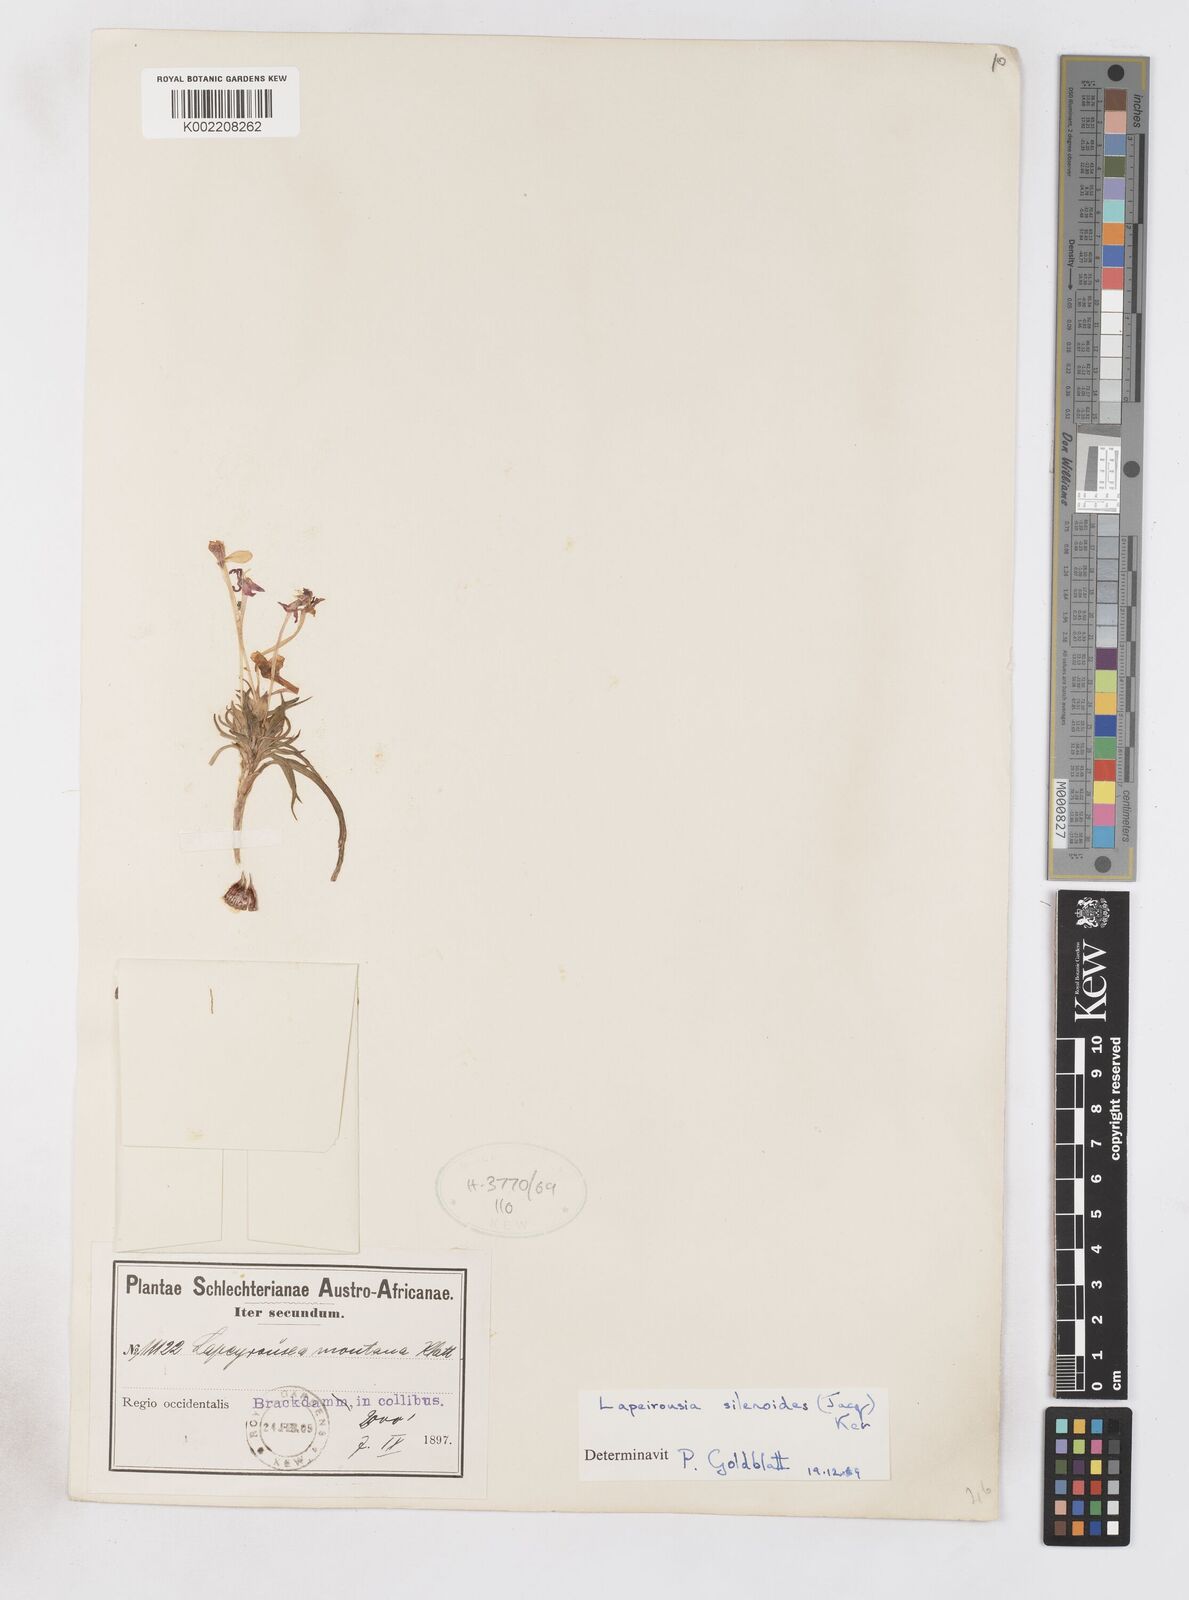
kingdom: Plantae
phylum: Tracheophyta
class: Liliopsida
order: Asparagales
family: Iridaceae
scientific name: Iridaceae
